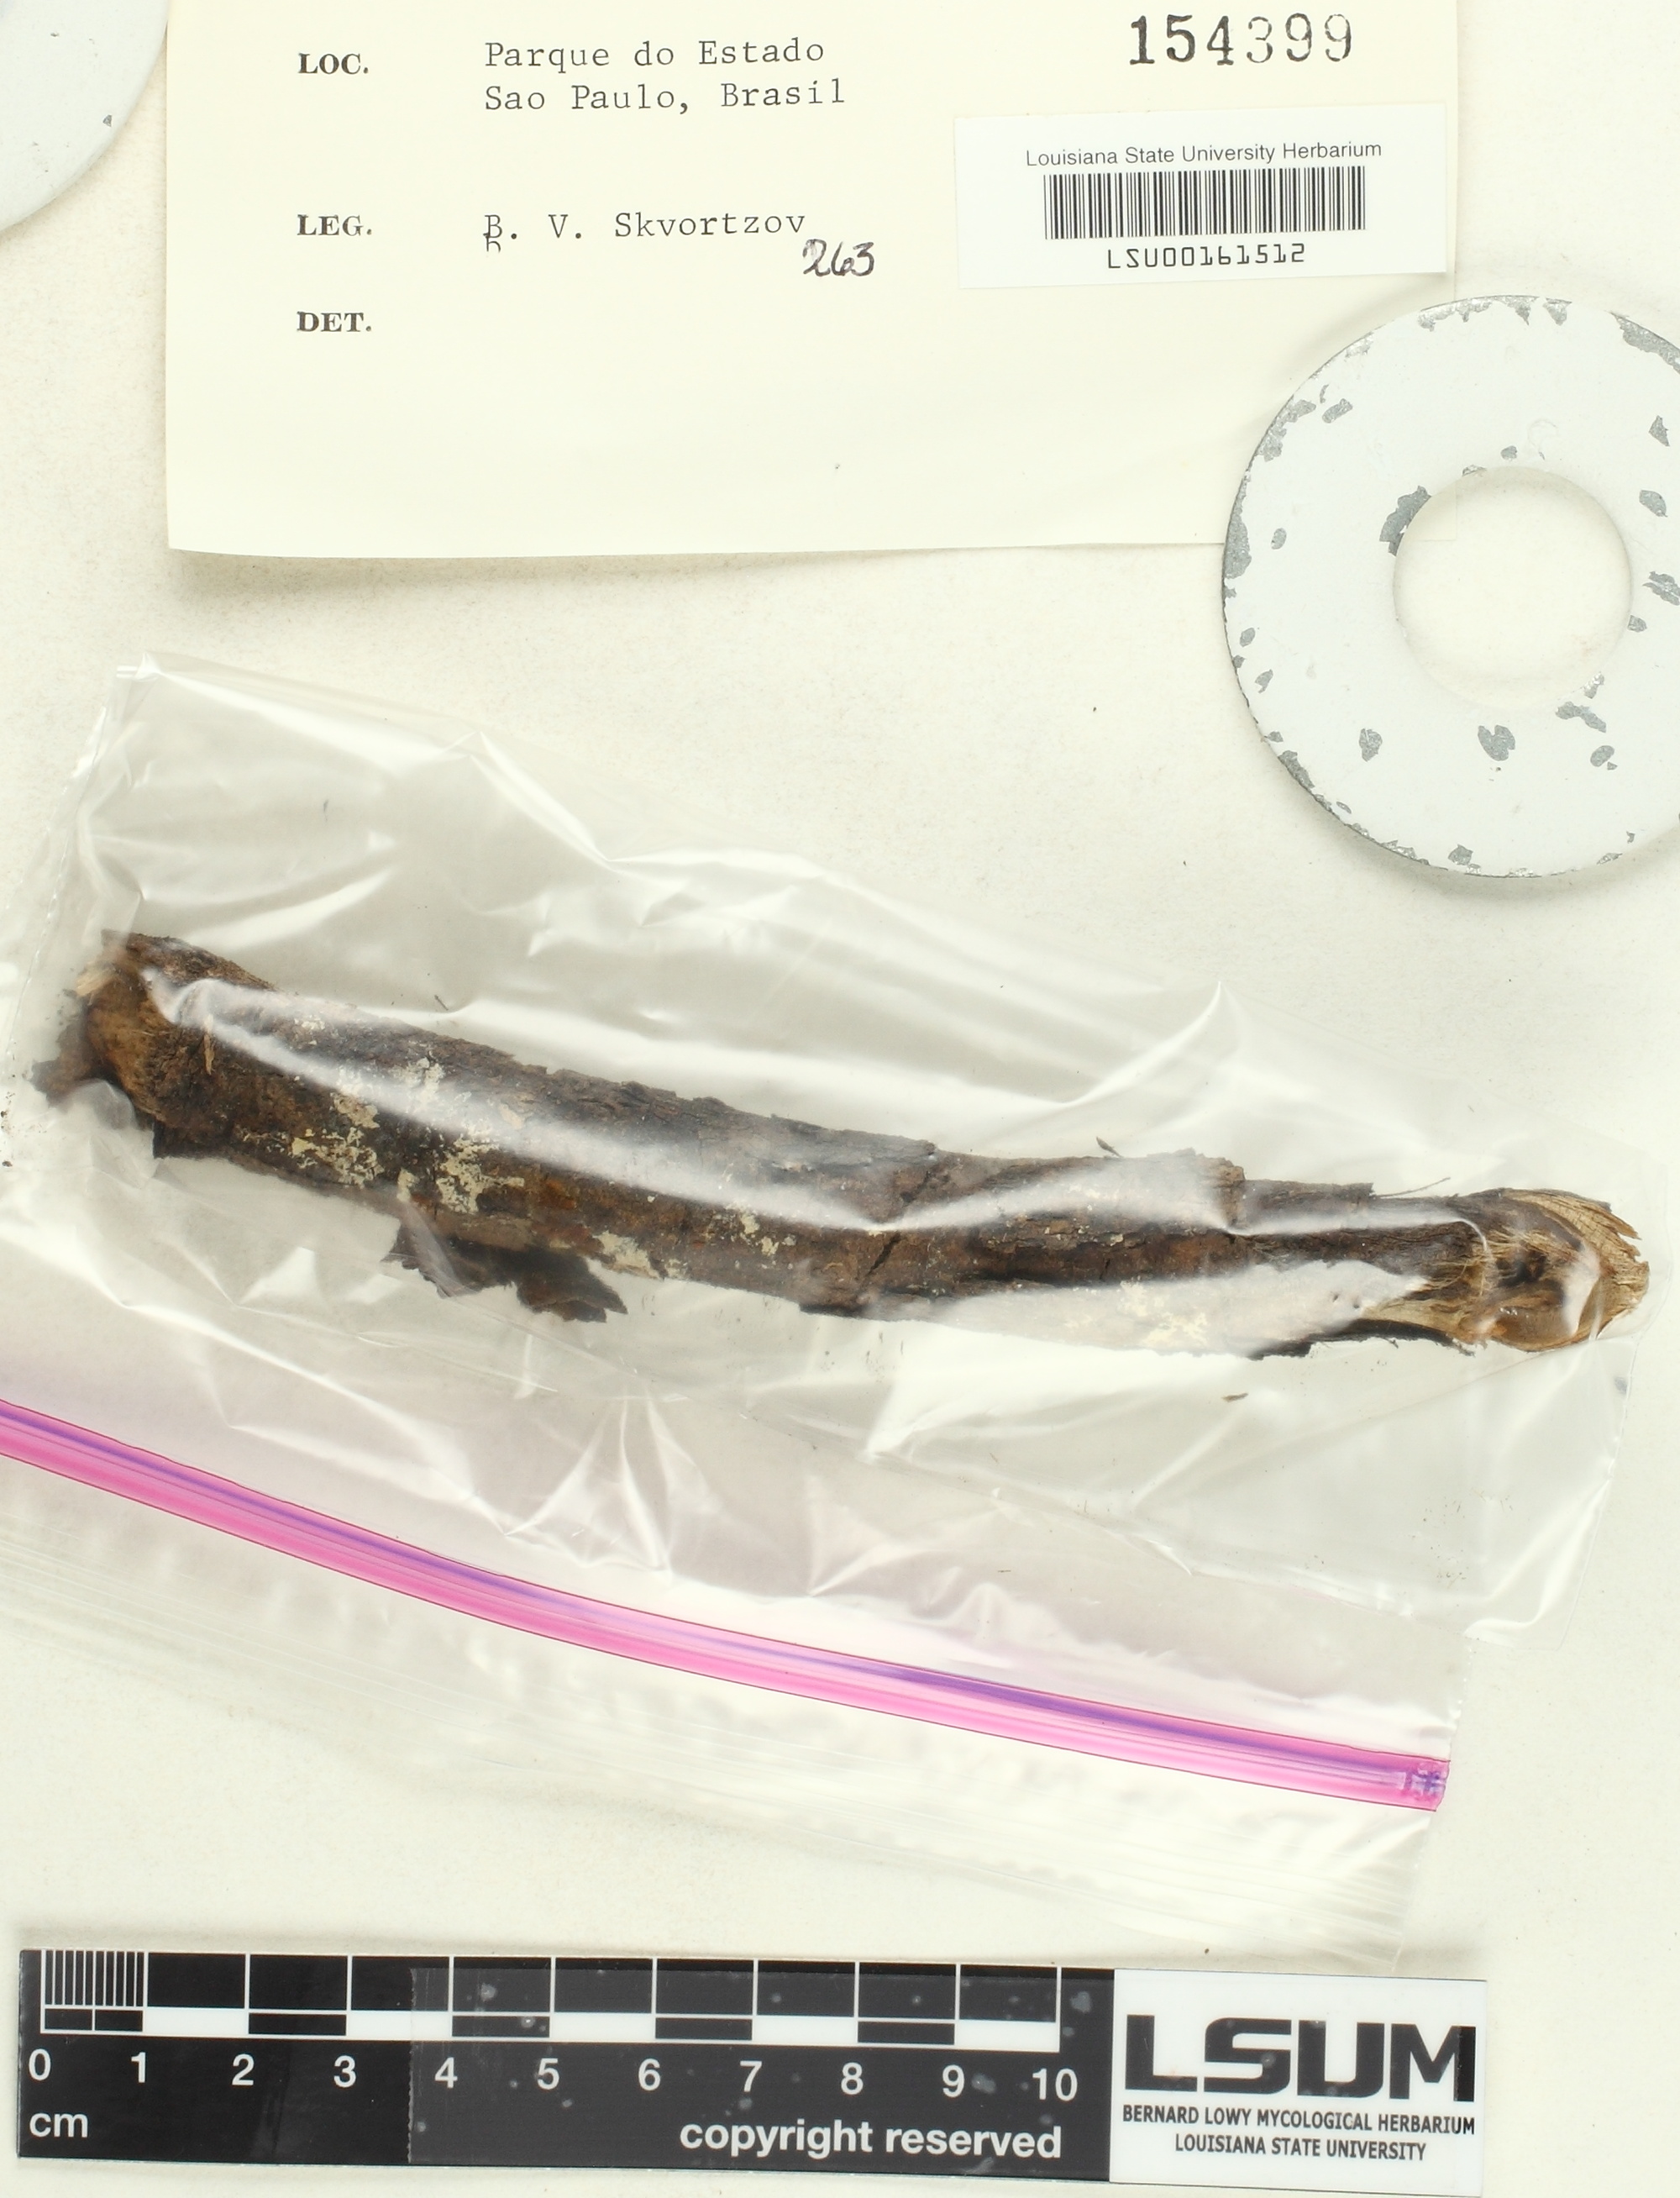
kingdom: Fungi
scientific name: Fungi
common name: Fungi
